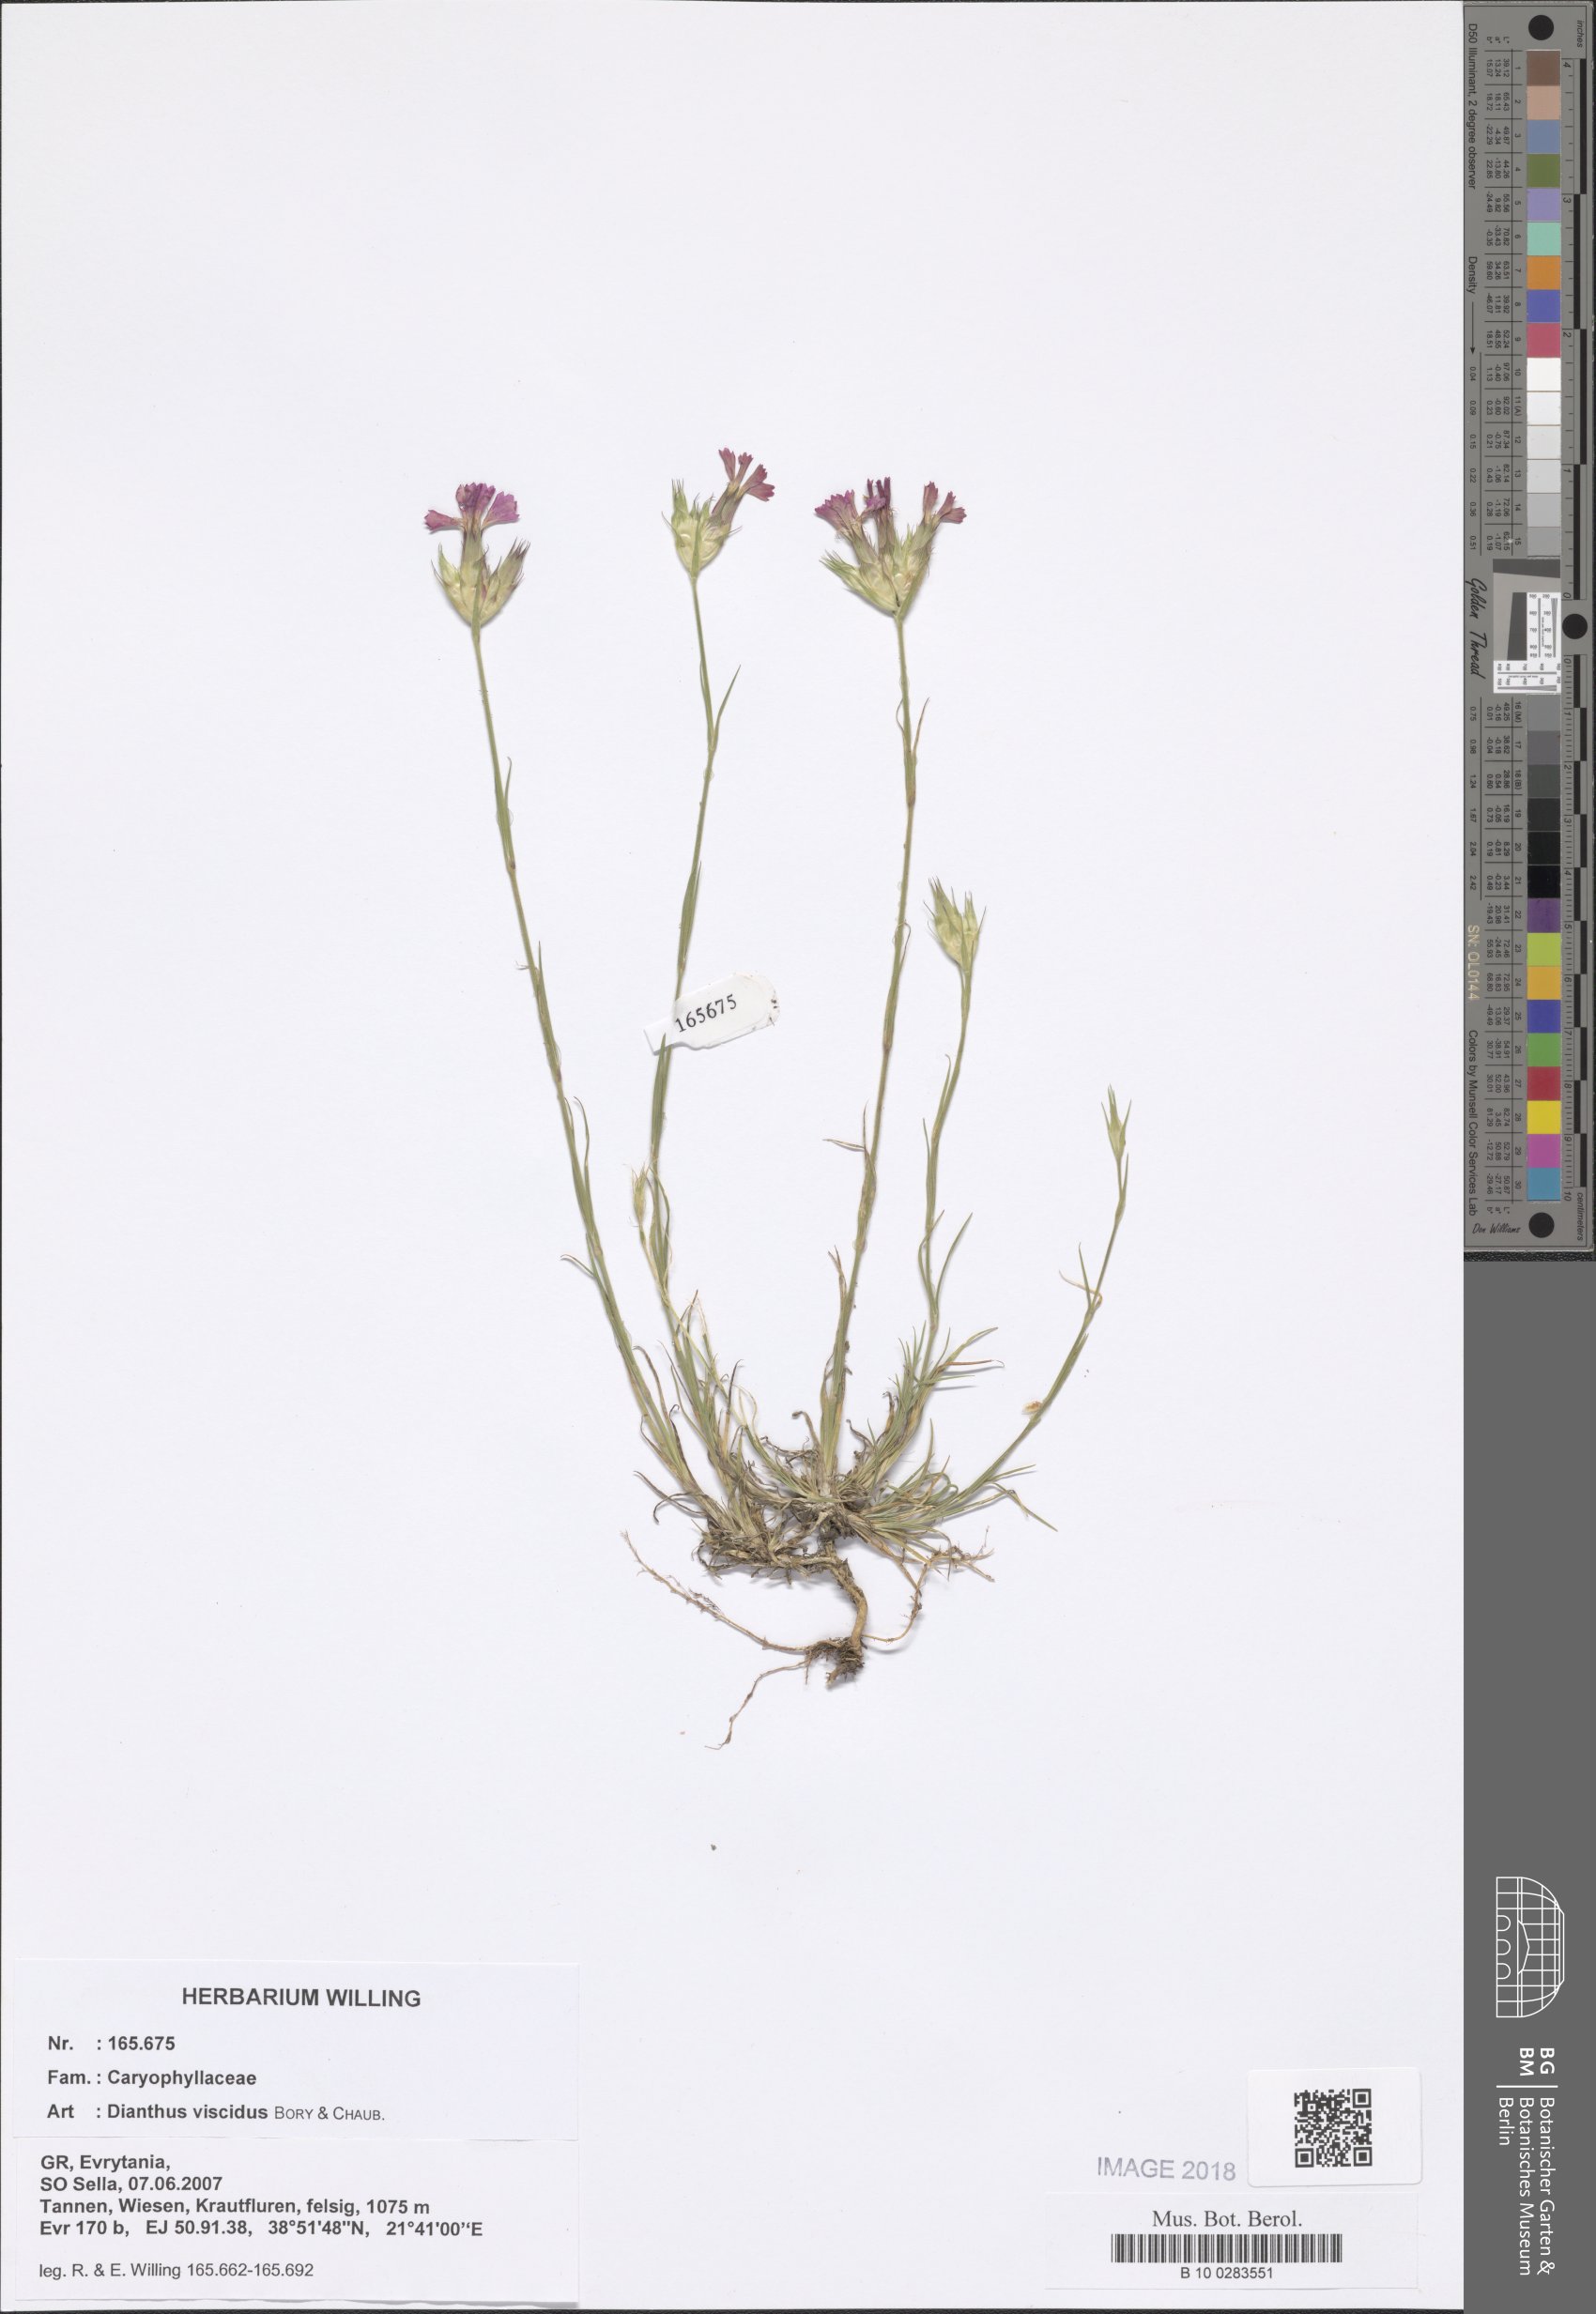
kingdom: Plantae
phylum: Tracheophyta
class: Magnoliopsida
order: Caryophyllales
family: Caryophyllaceae
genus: Dianthus
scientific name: Dianthus viscidus
